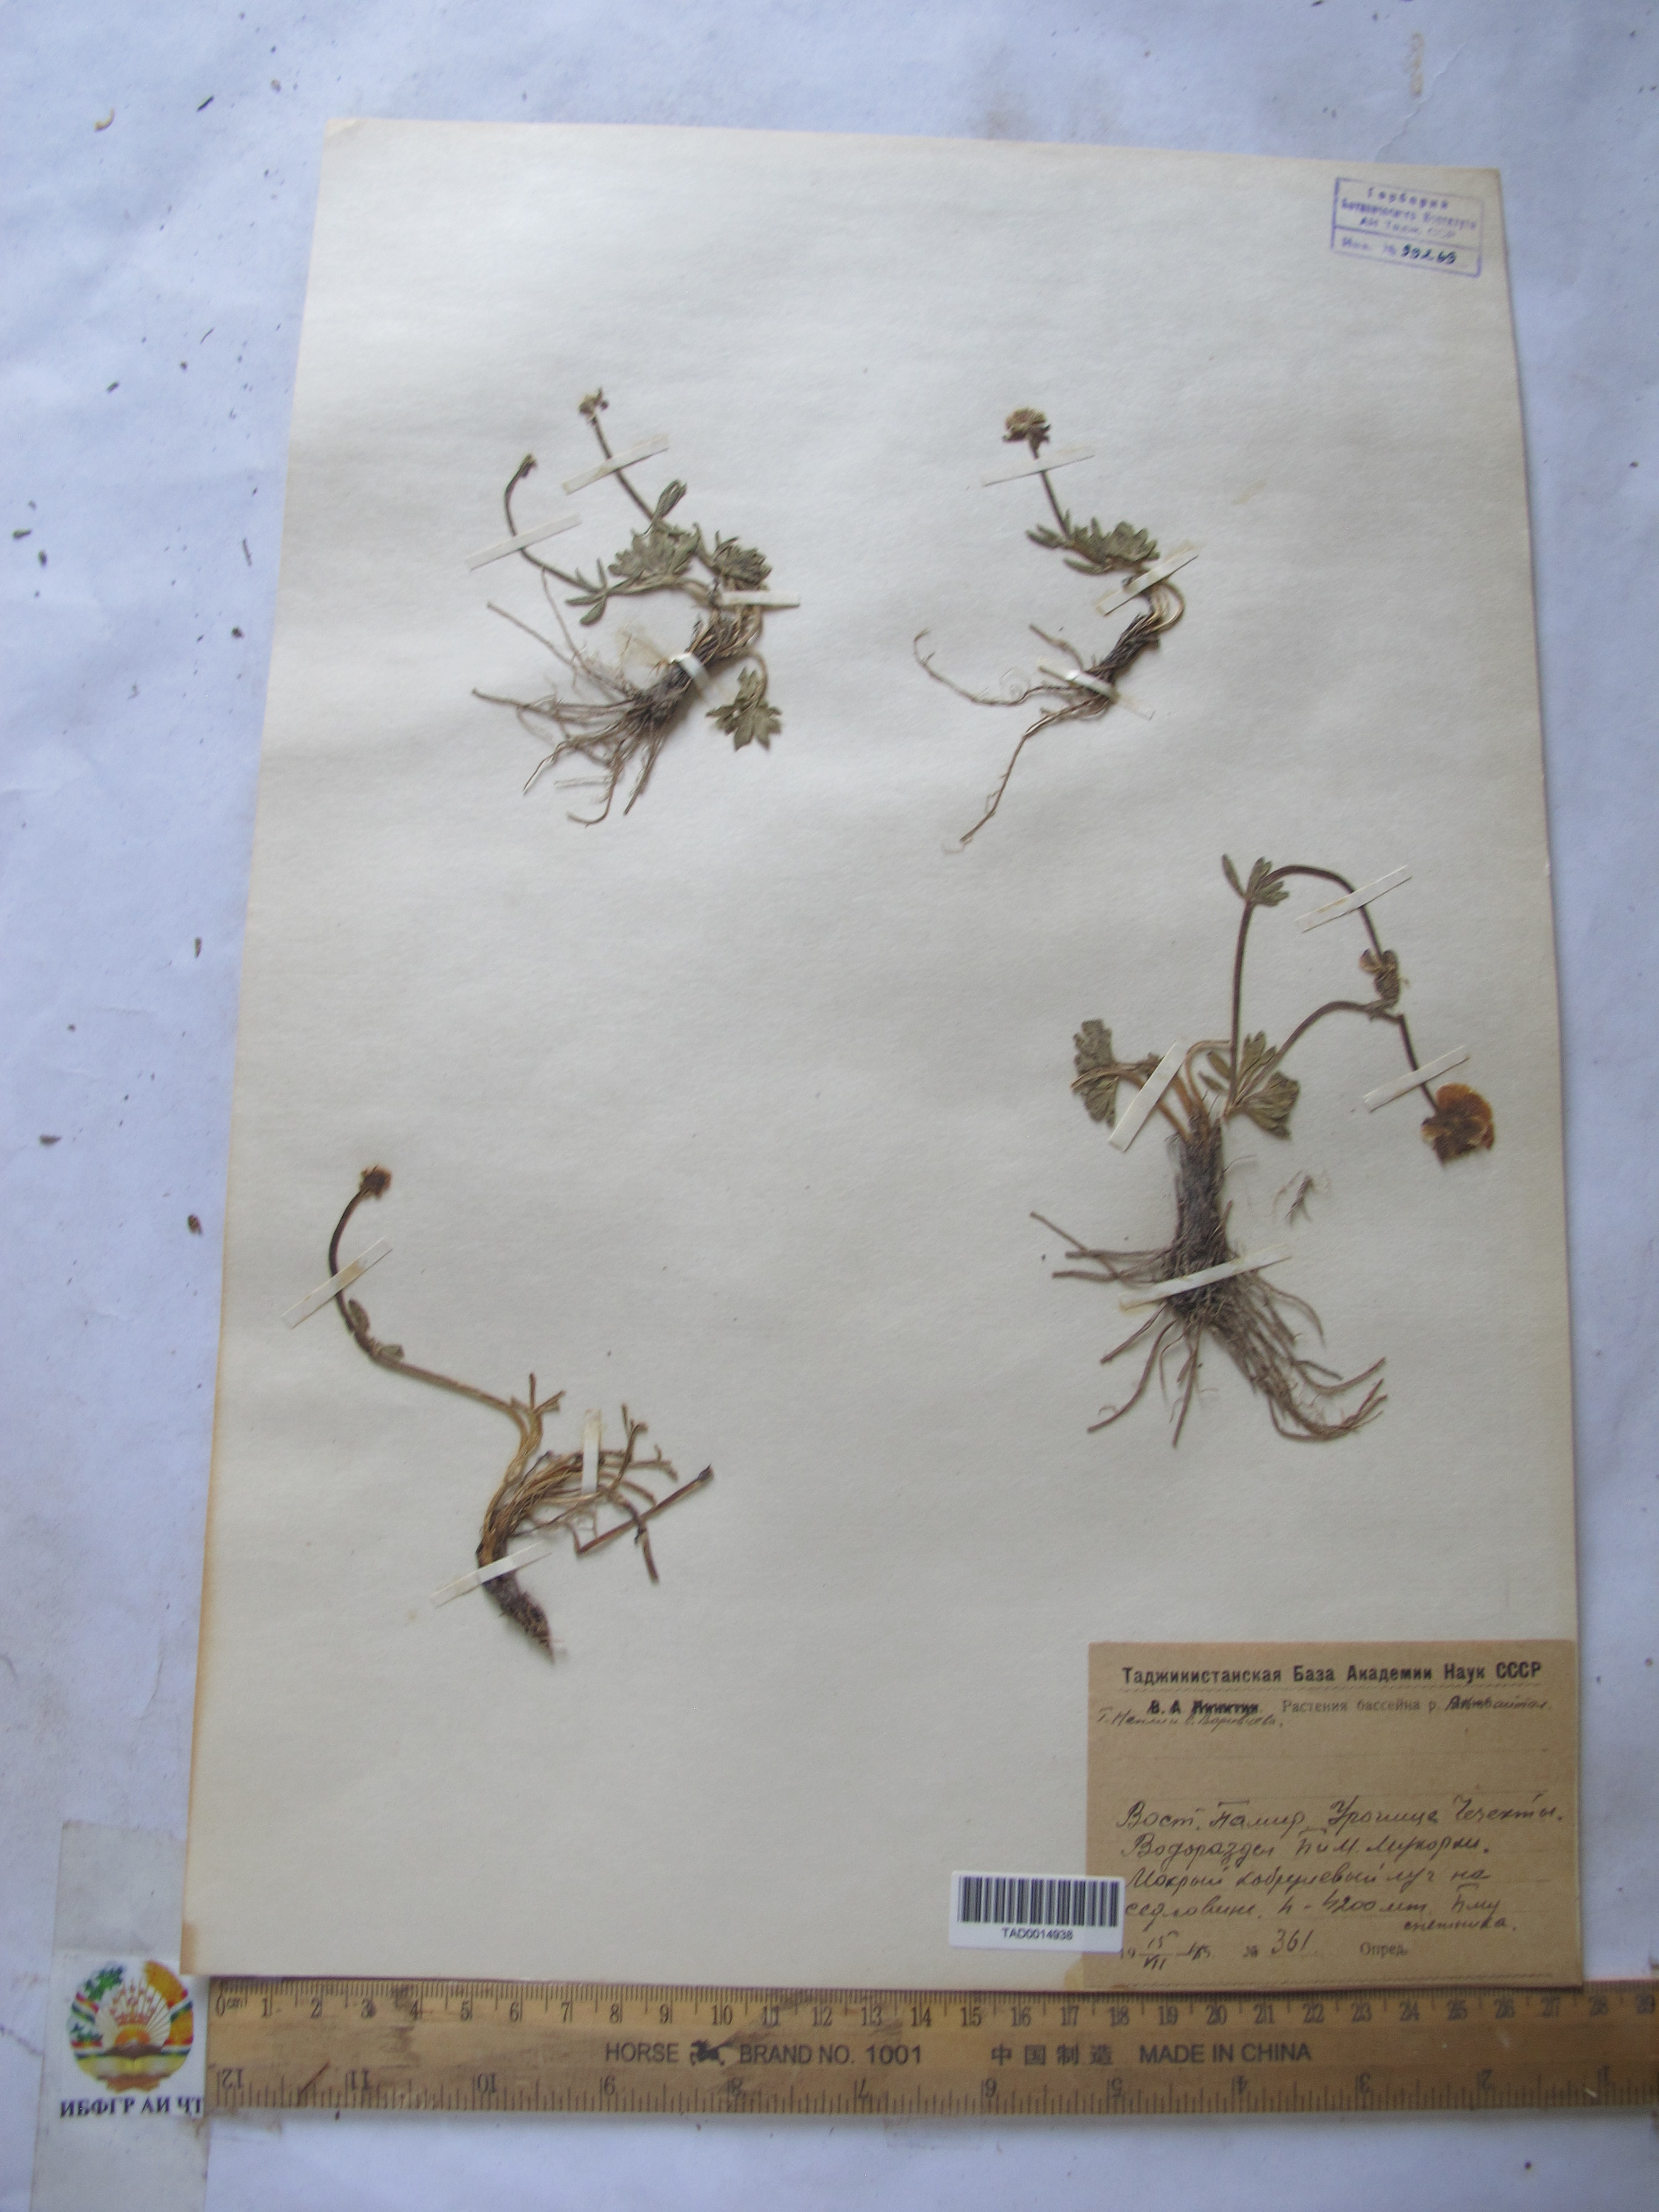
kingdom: Plantae
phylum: Tracheophyta
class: Magnoliopsida
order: Ranunculales
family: Ranunculaceae
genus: Ranunculus
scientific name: Ranunculus rufosepalus
